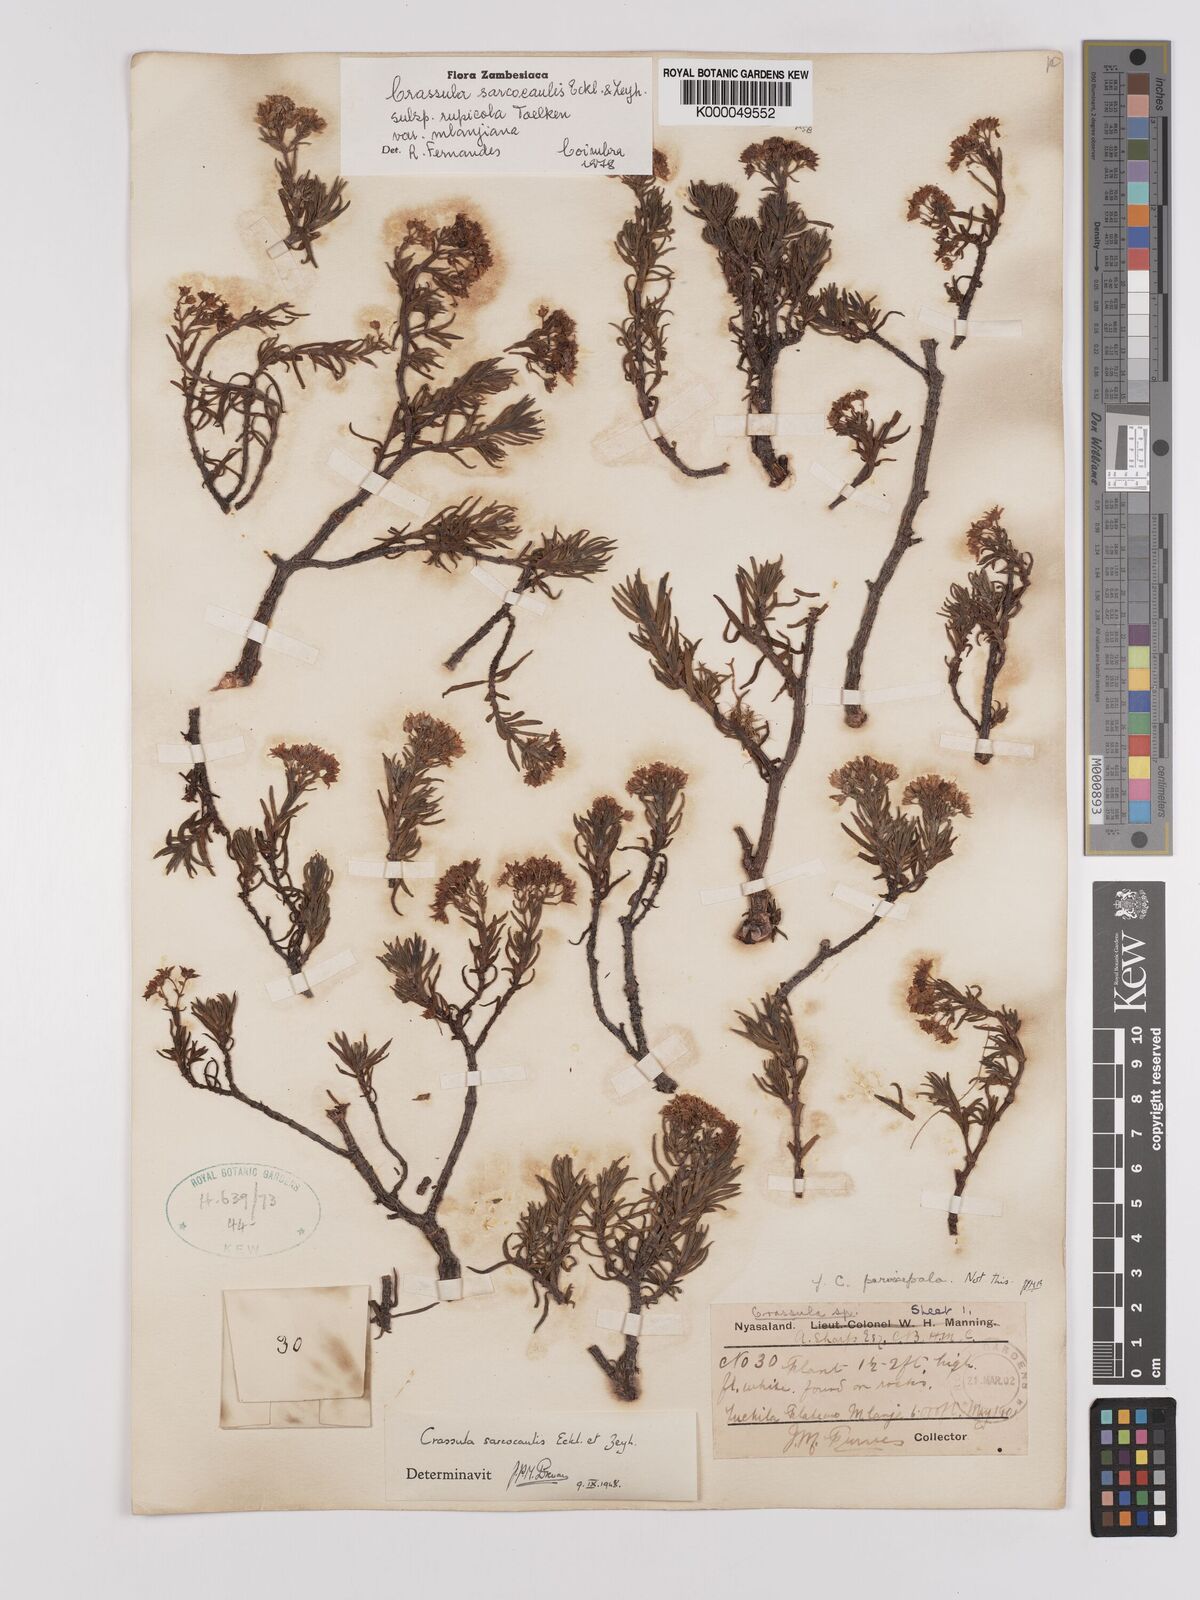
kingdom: Plantae
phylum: Tracheophyta
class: Magnoliopsida
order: Saxifragales
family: Crassulaceae
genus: Crassula
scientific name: Crassula sarcocaulis
